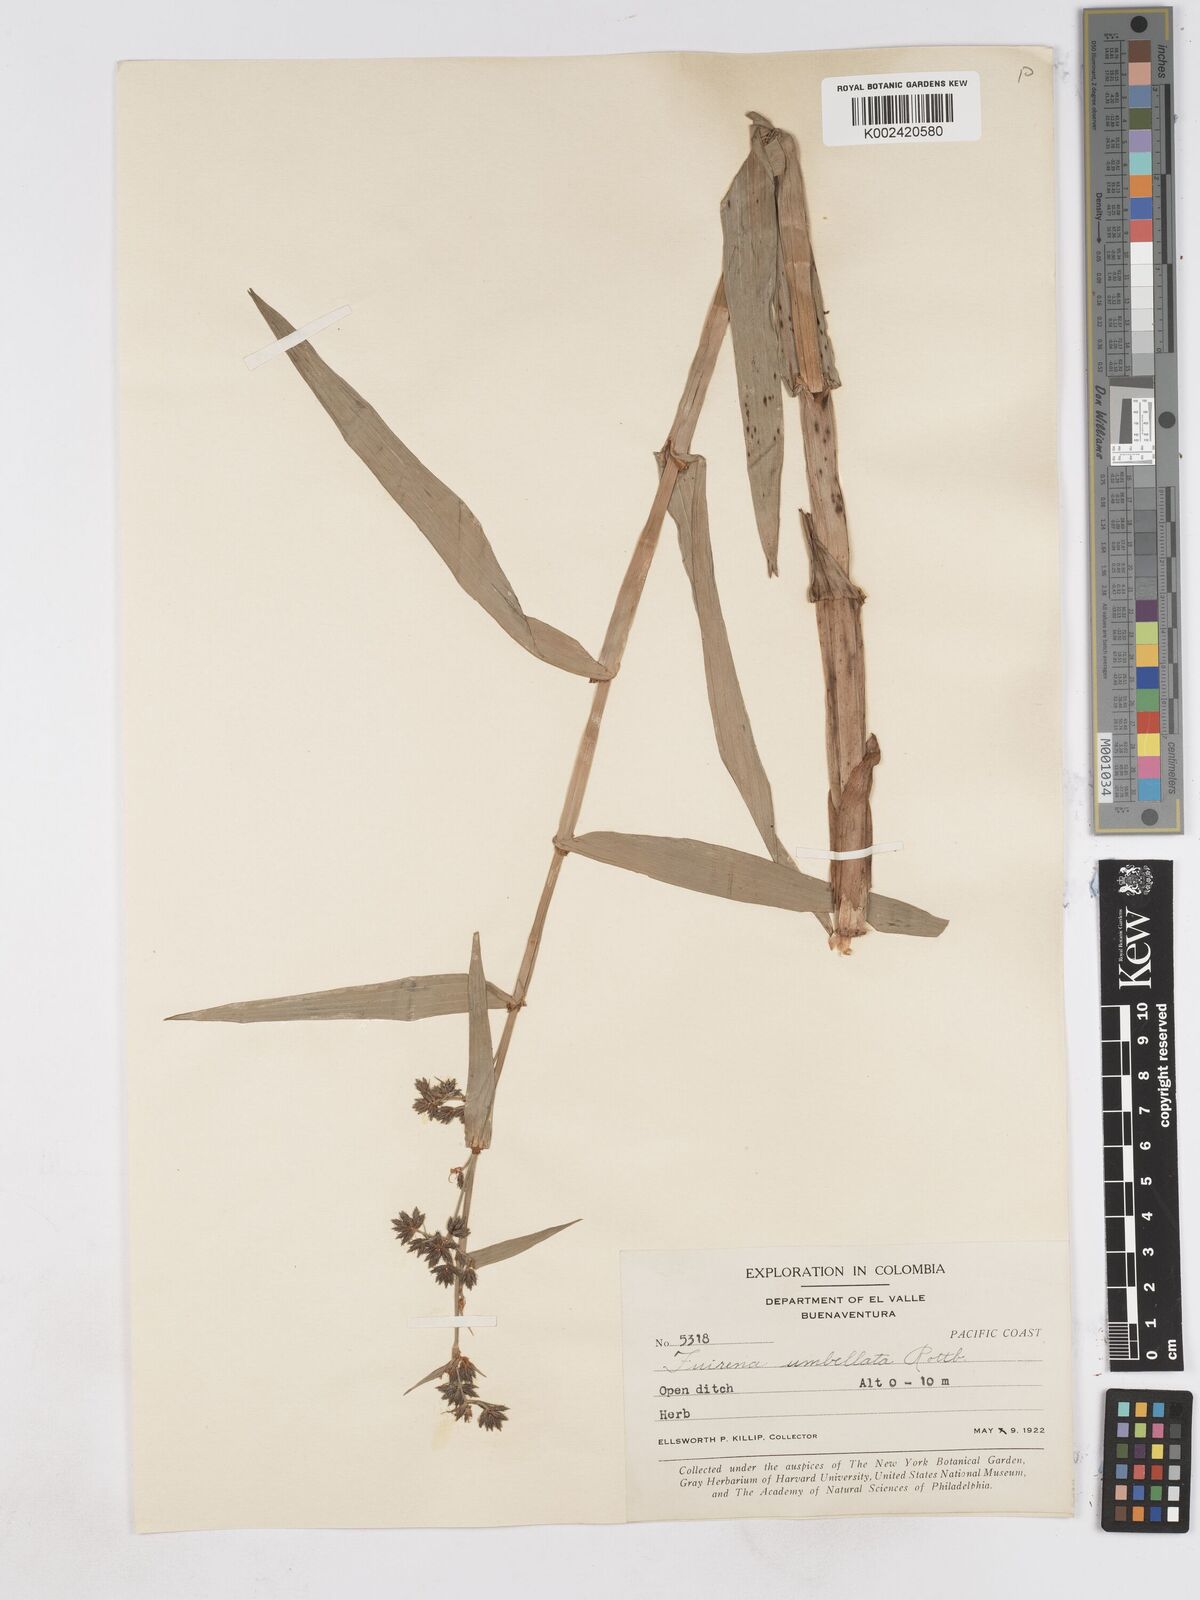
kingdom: Plantae
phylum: Tracheophyta
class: Liliopsida
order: Poales
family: Cyperaceae
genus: Fuirena
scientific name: Fuirena umbellata
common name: Yefen
